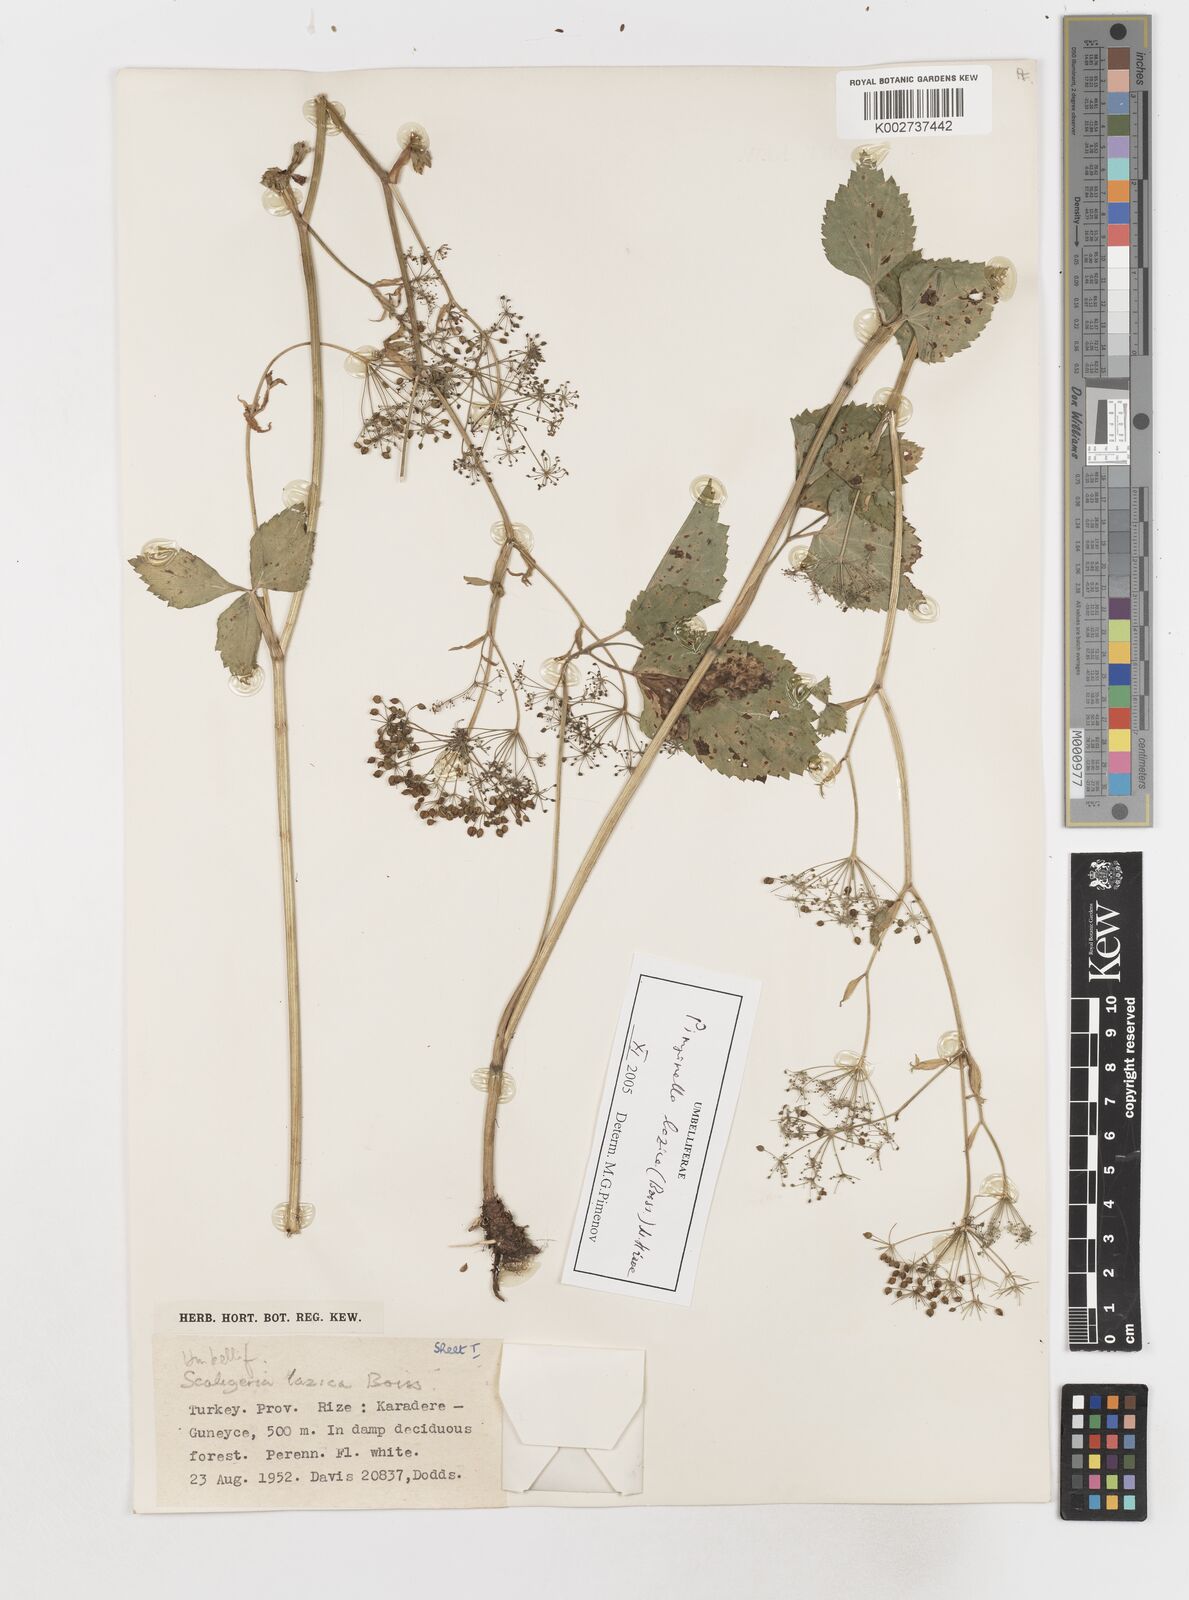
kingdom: Plantae
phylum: Tracheophyta
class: Magnoliopsida
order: Apiales
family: Apiaceae
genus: Scaligeria
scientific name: Scaligeria lazica
